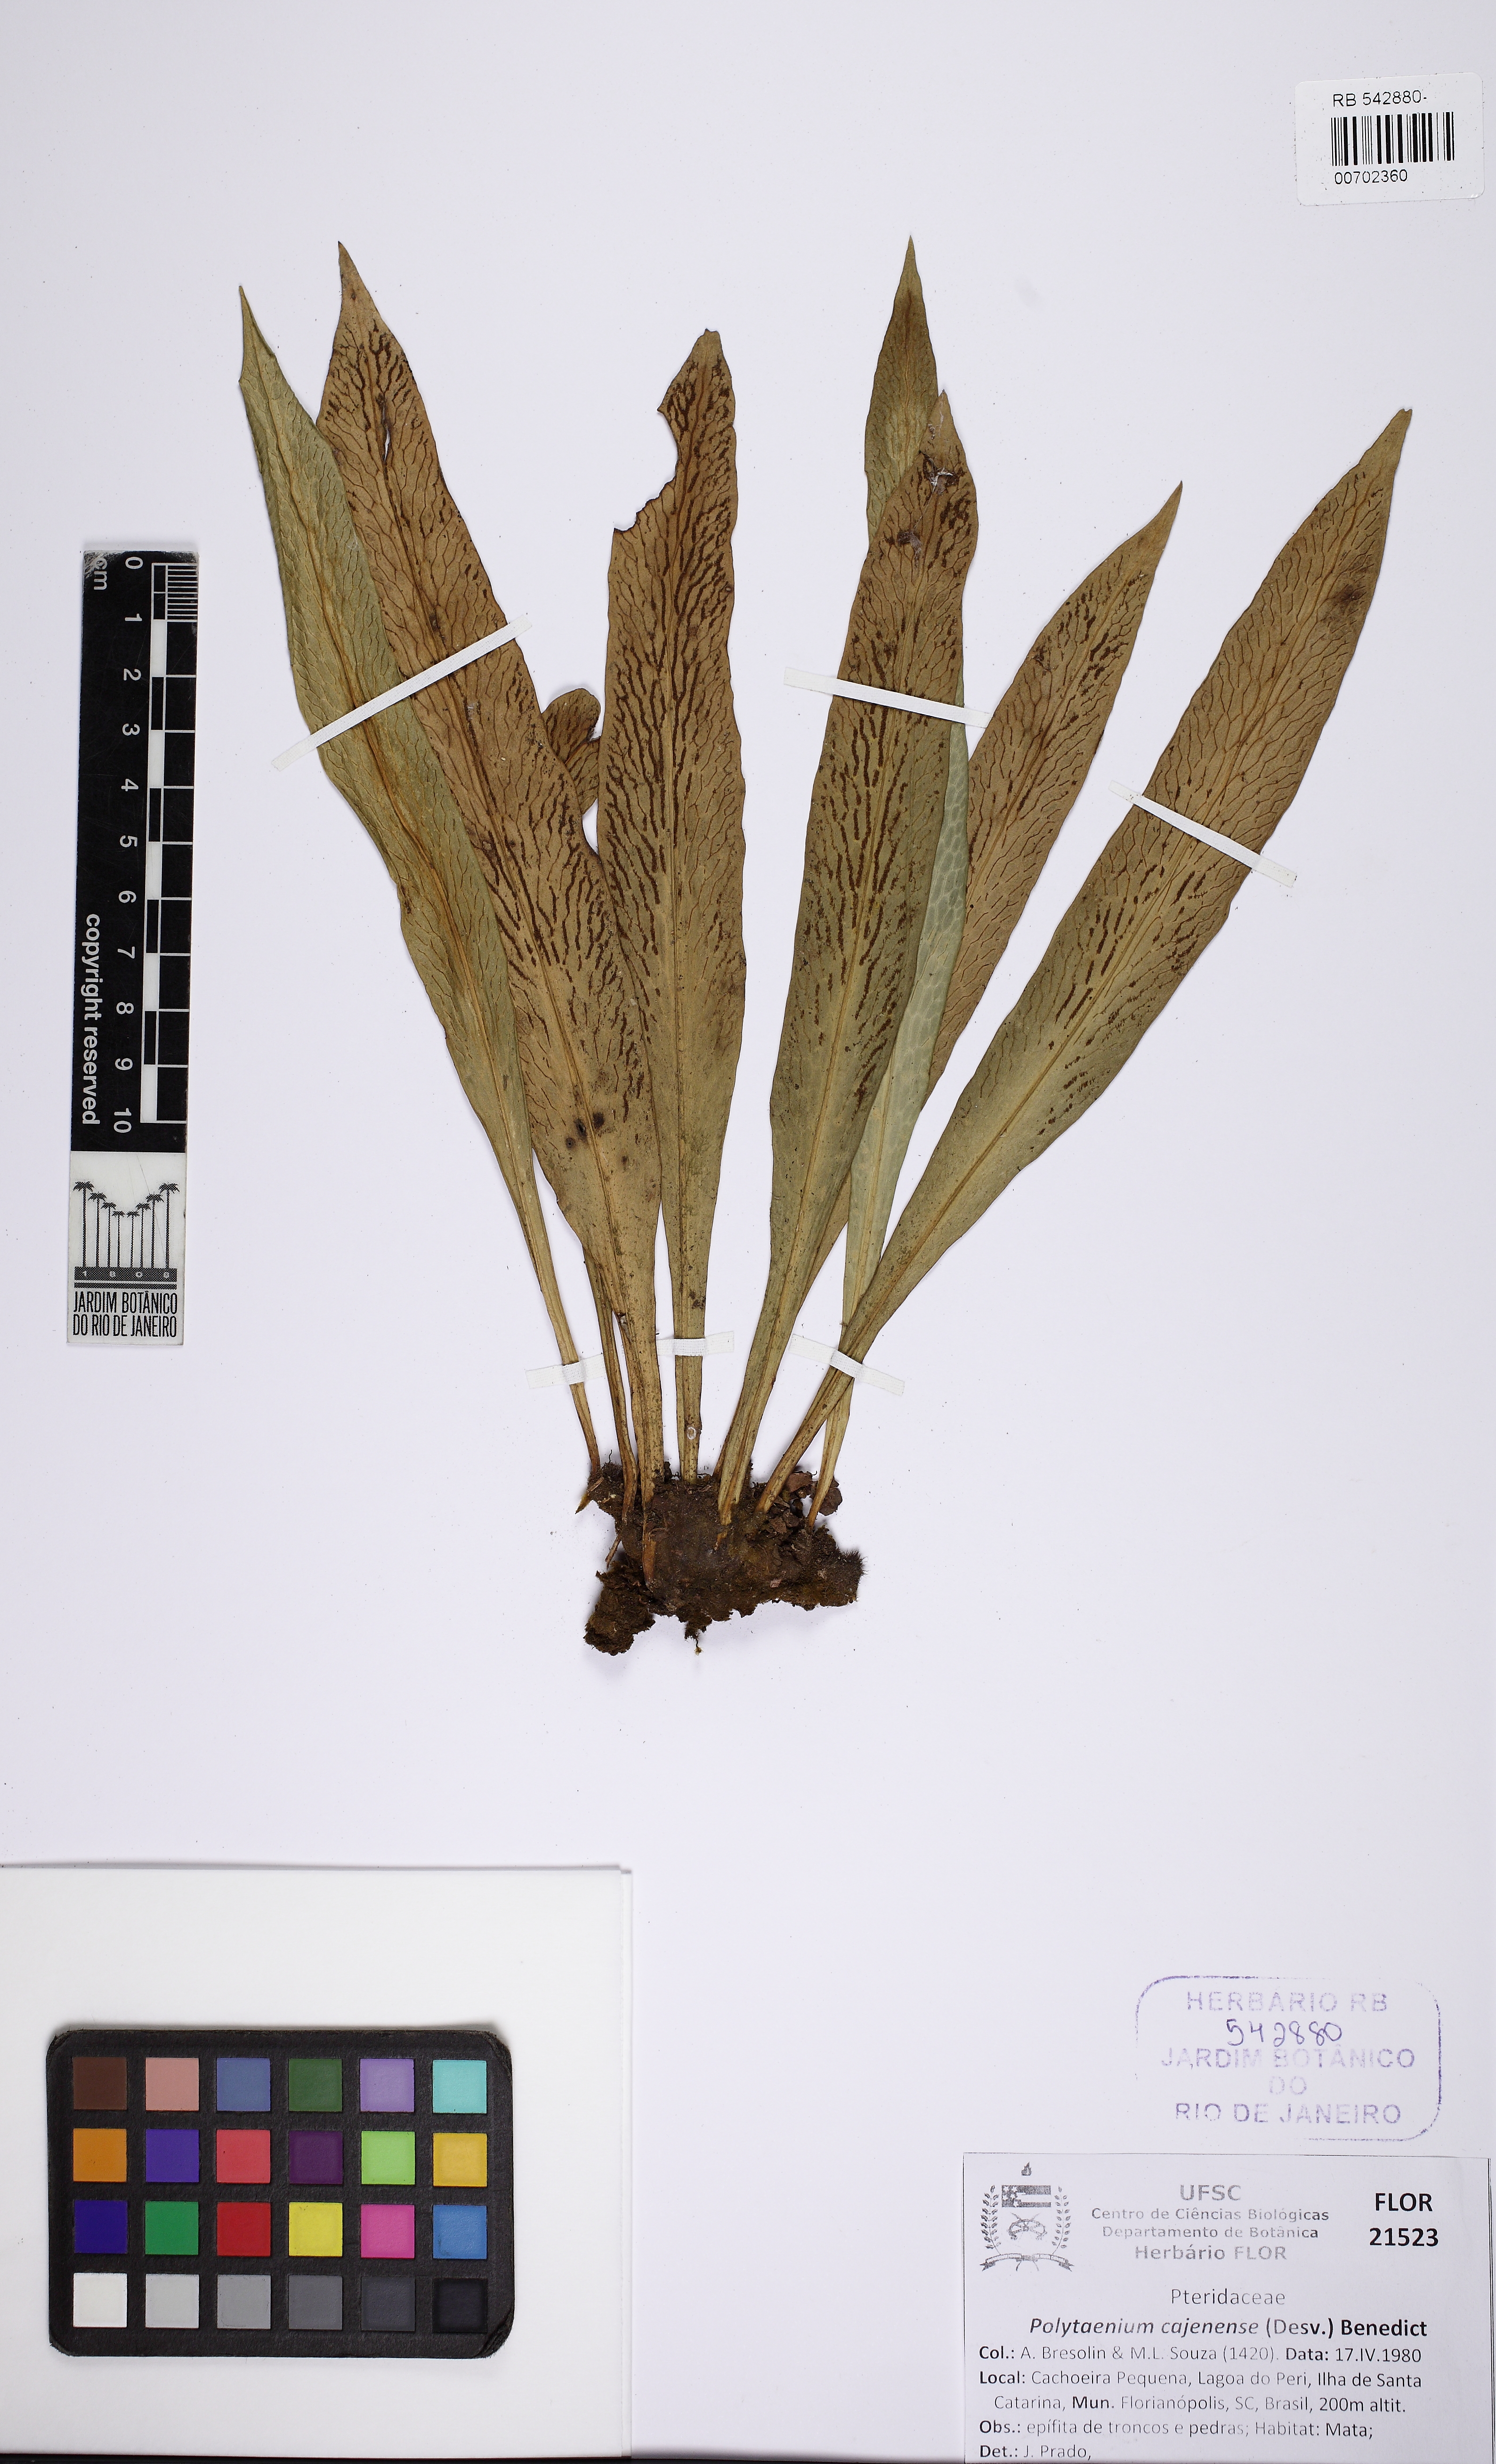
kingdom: Plantae
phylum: Tracheophyta
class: Polypodiopsida
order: Polypodiales
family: Pteridaceae
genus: Polytaenium
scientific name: Polytaenium cajenense
